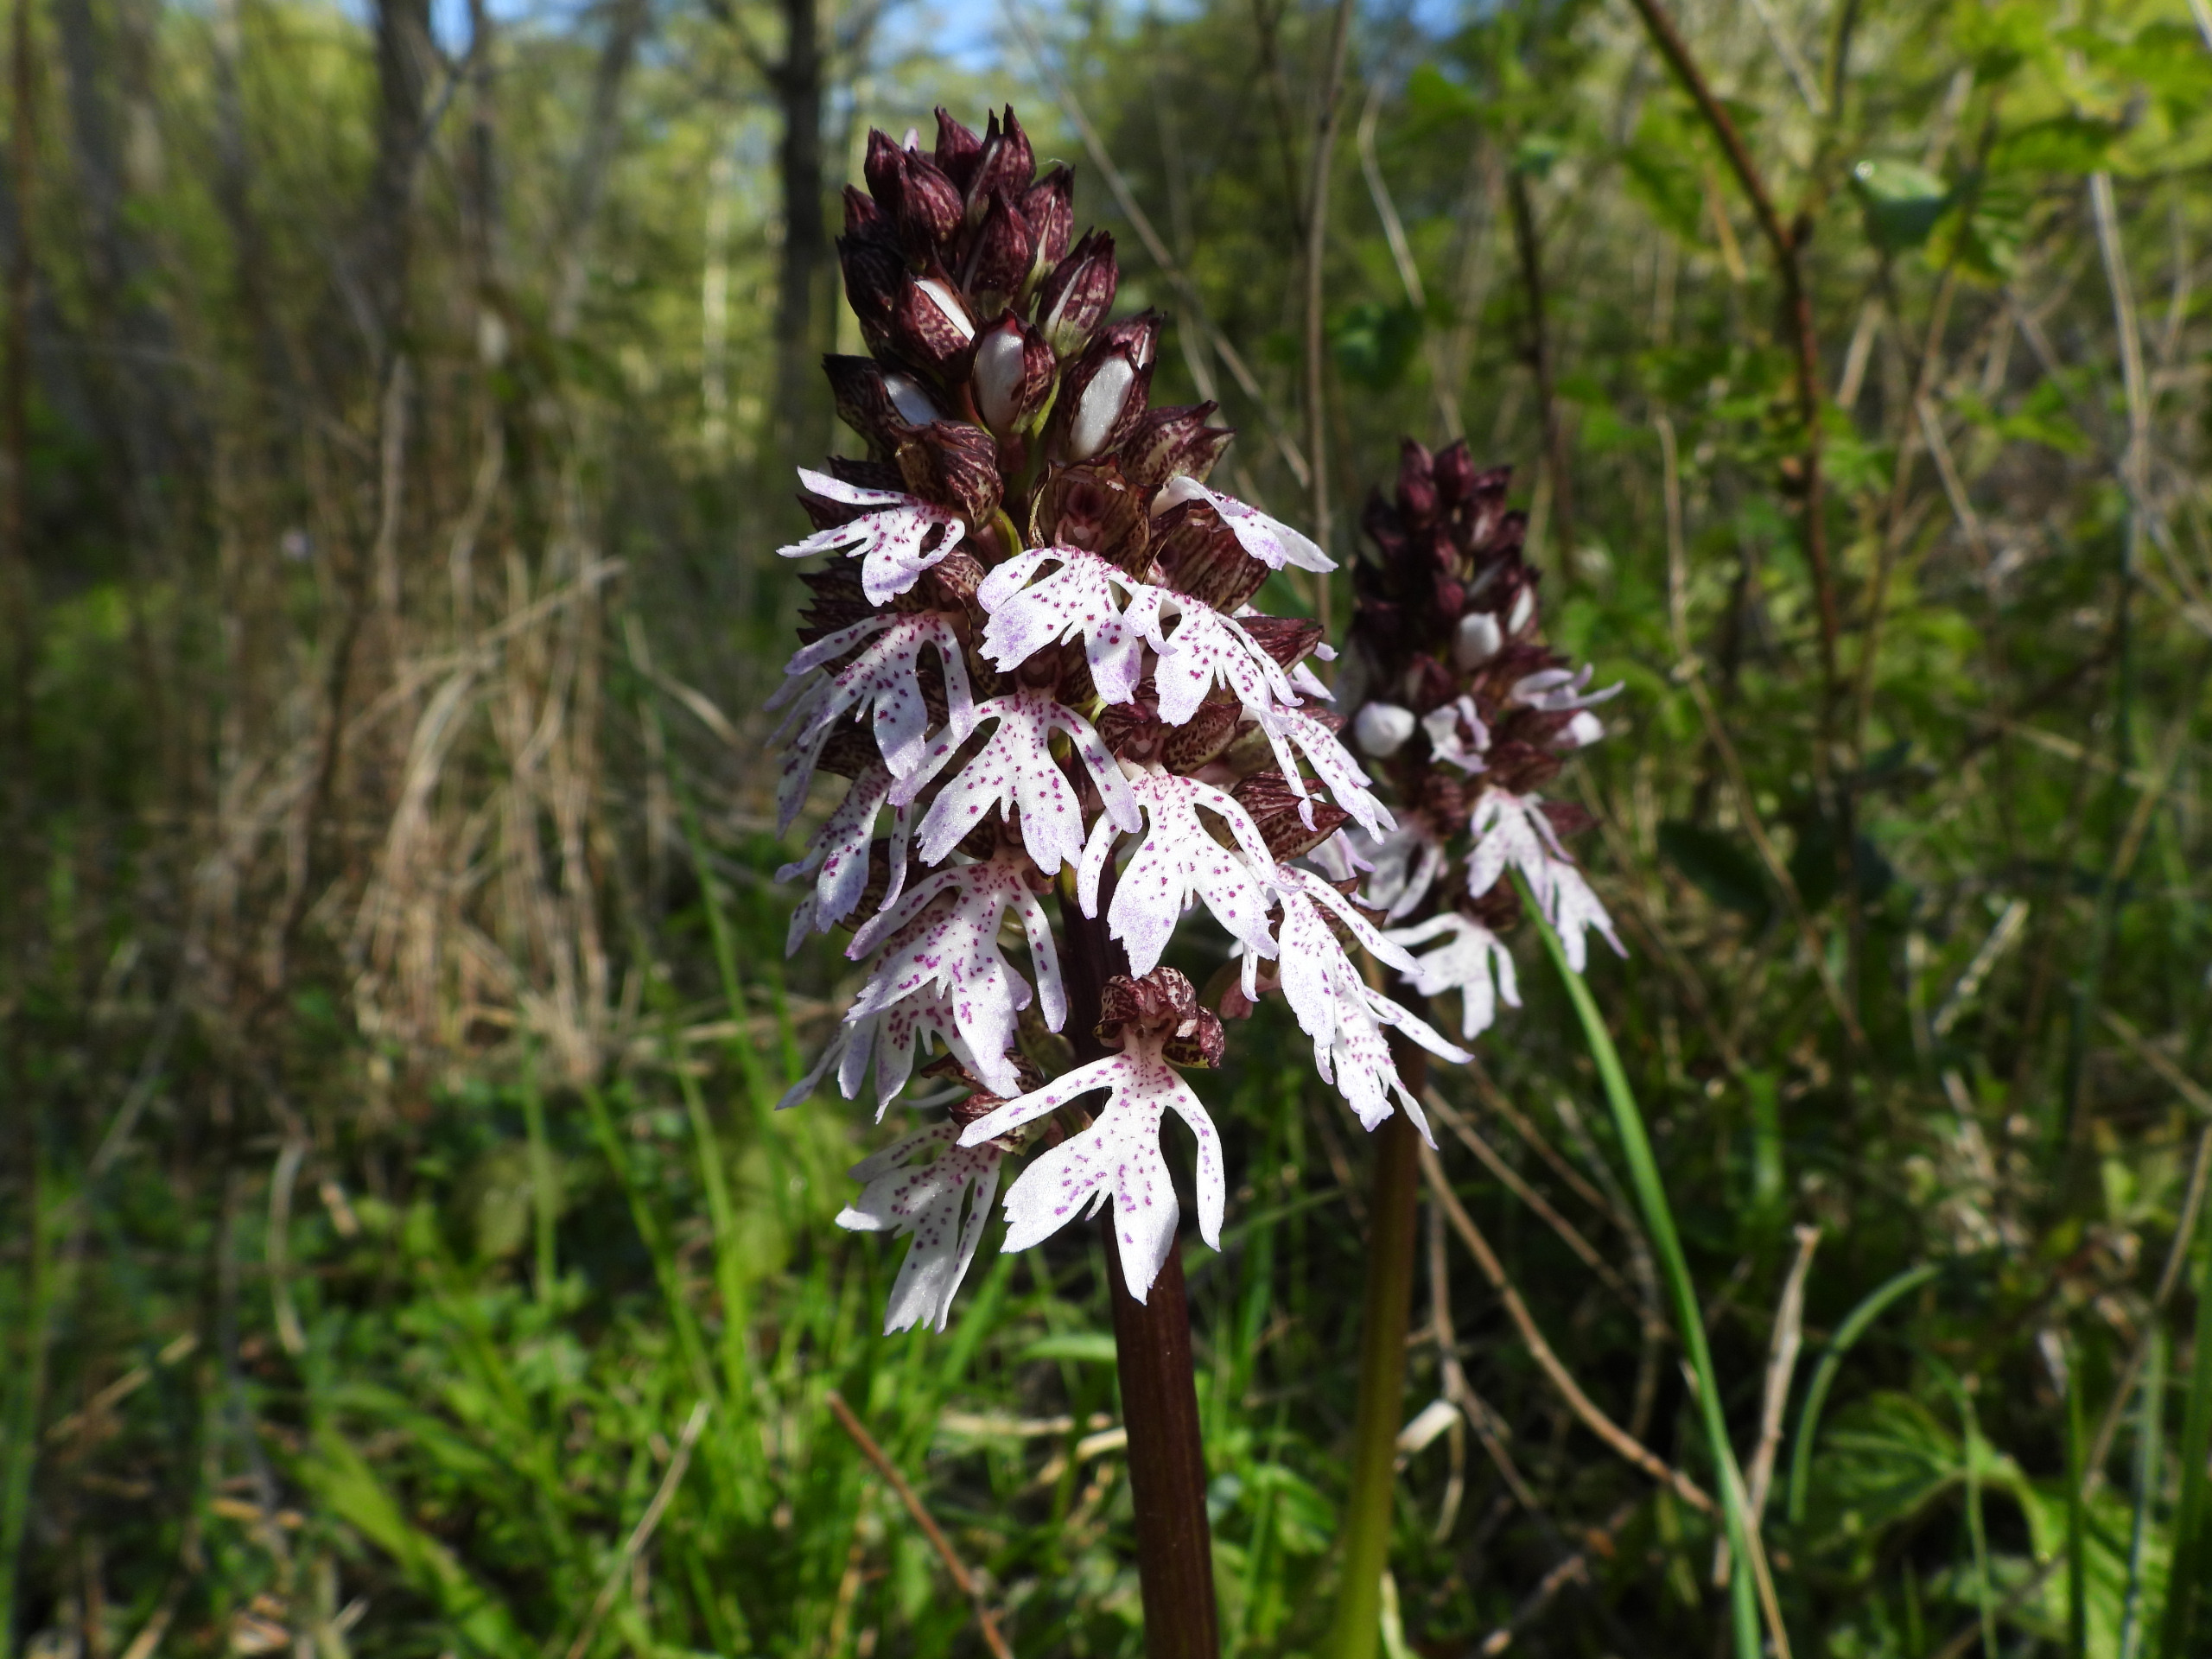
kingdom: Plantae
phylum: Tracheophyta
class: Liliopsida
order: Asparagales
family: Orchidaceae
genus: Orchis
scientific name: Orchis purpurea
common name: Stor gøgeurt
